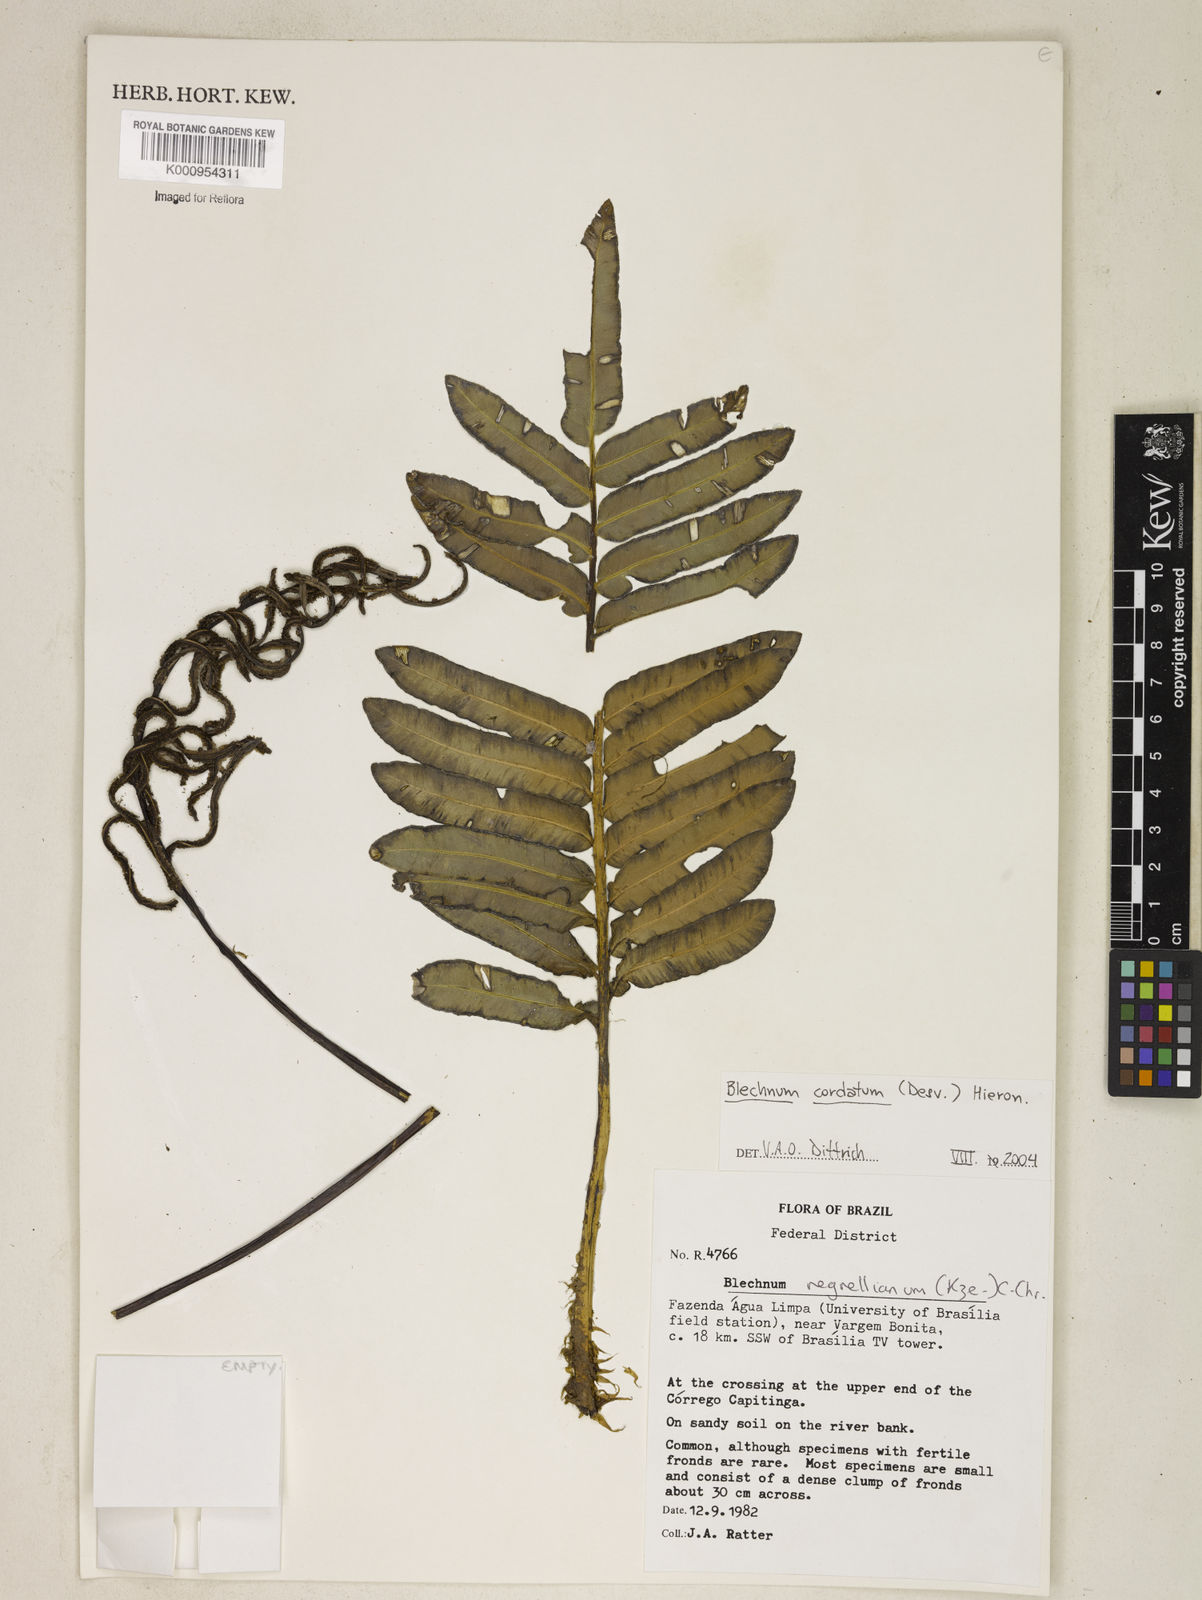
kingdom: Plantae
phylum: Tracheophyta
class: Polypodiopsida
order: Polypodiales
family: Blechnaceae
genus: Parablechnum
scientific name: Parablechnum cordatum
